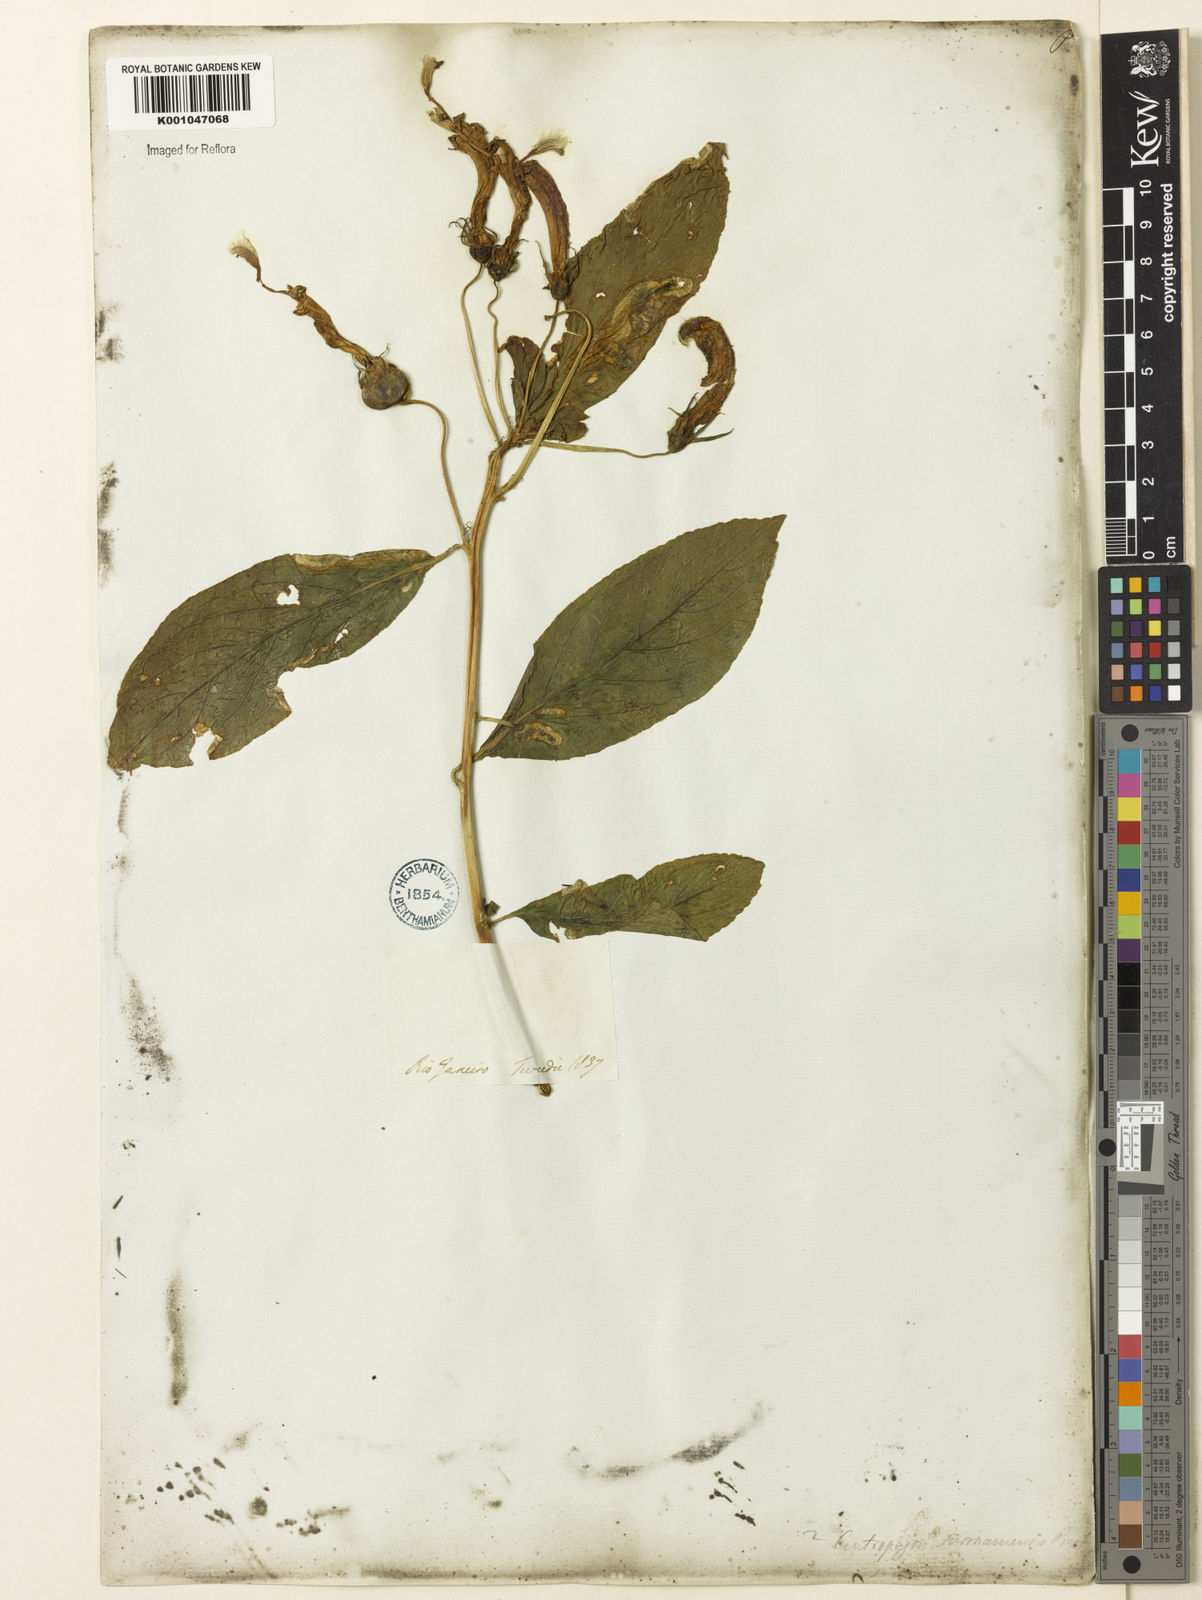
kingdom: Plantae
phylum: Tracheophyta
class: Magnoliopsida
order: Asterales
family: Campanulaceae
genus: Centropogon
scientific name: Centropogon cornutus
